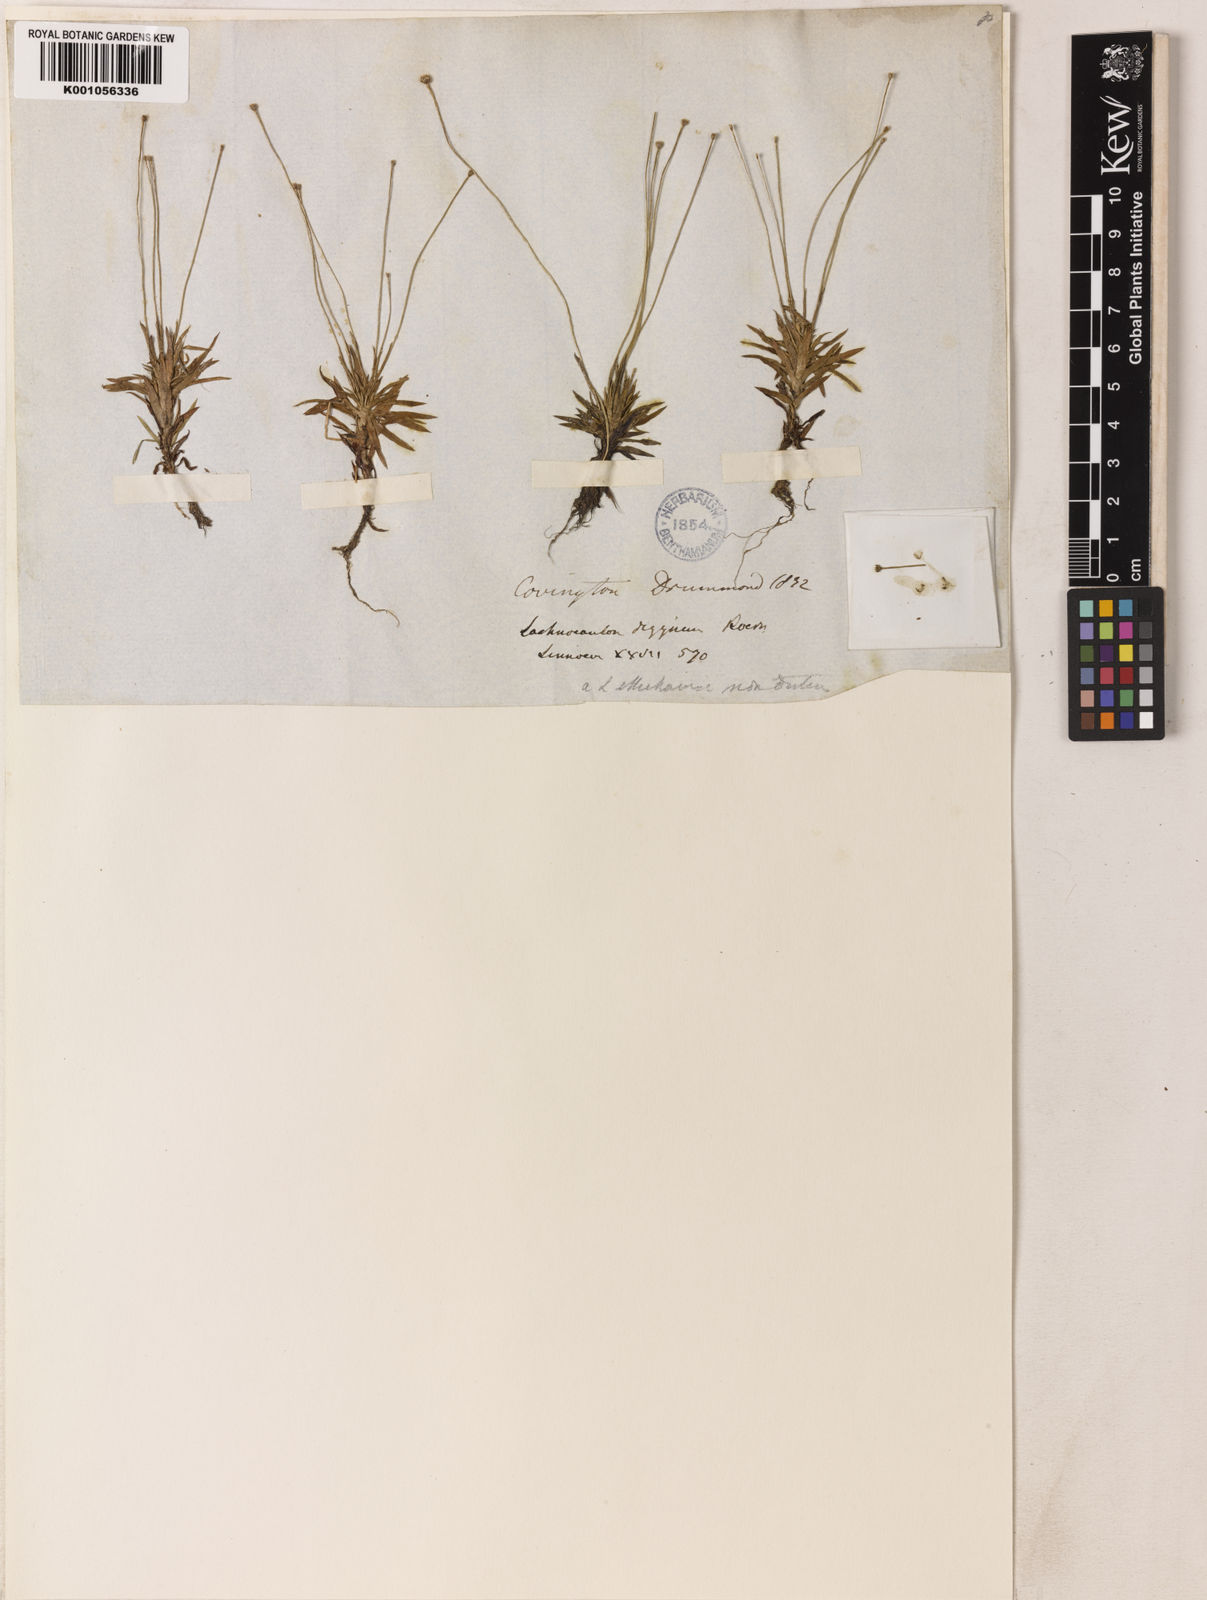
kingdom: Plantae
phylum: Tracheophyta
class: Liliopsida
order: Poales
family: Eriocaulaceae
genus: Paepalanthus
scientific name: Paepalanthus
